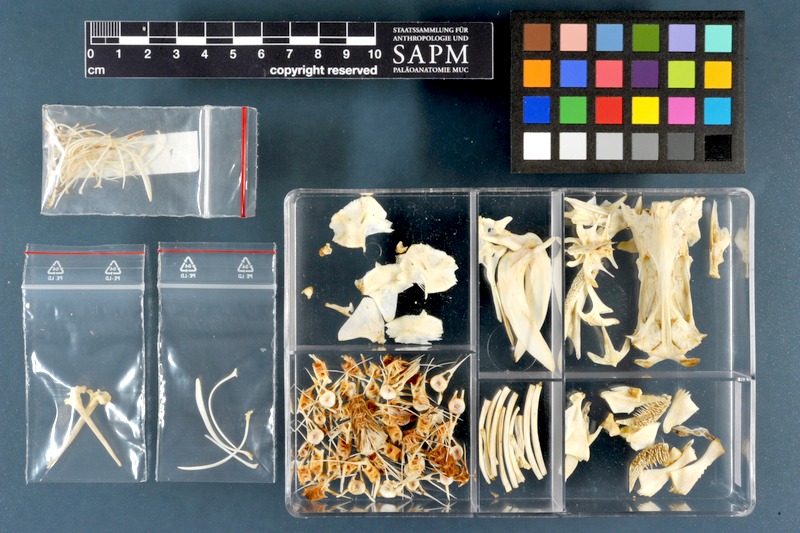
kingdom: Animalia
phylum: Chordata
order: Siluriformes
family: Siluridae
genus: Silurus
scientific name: Silurus triostegus
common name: Mesopotamian catfish
